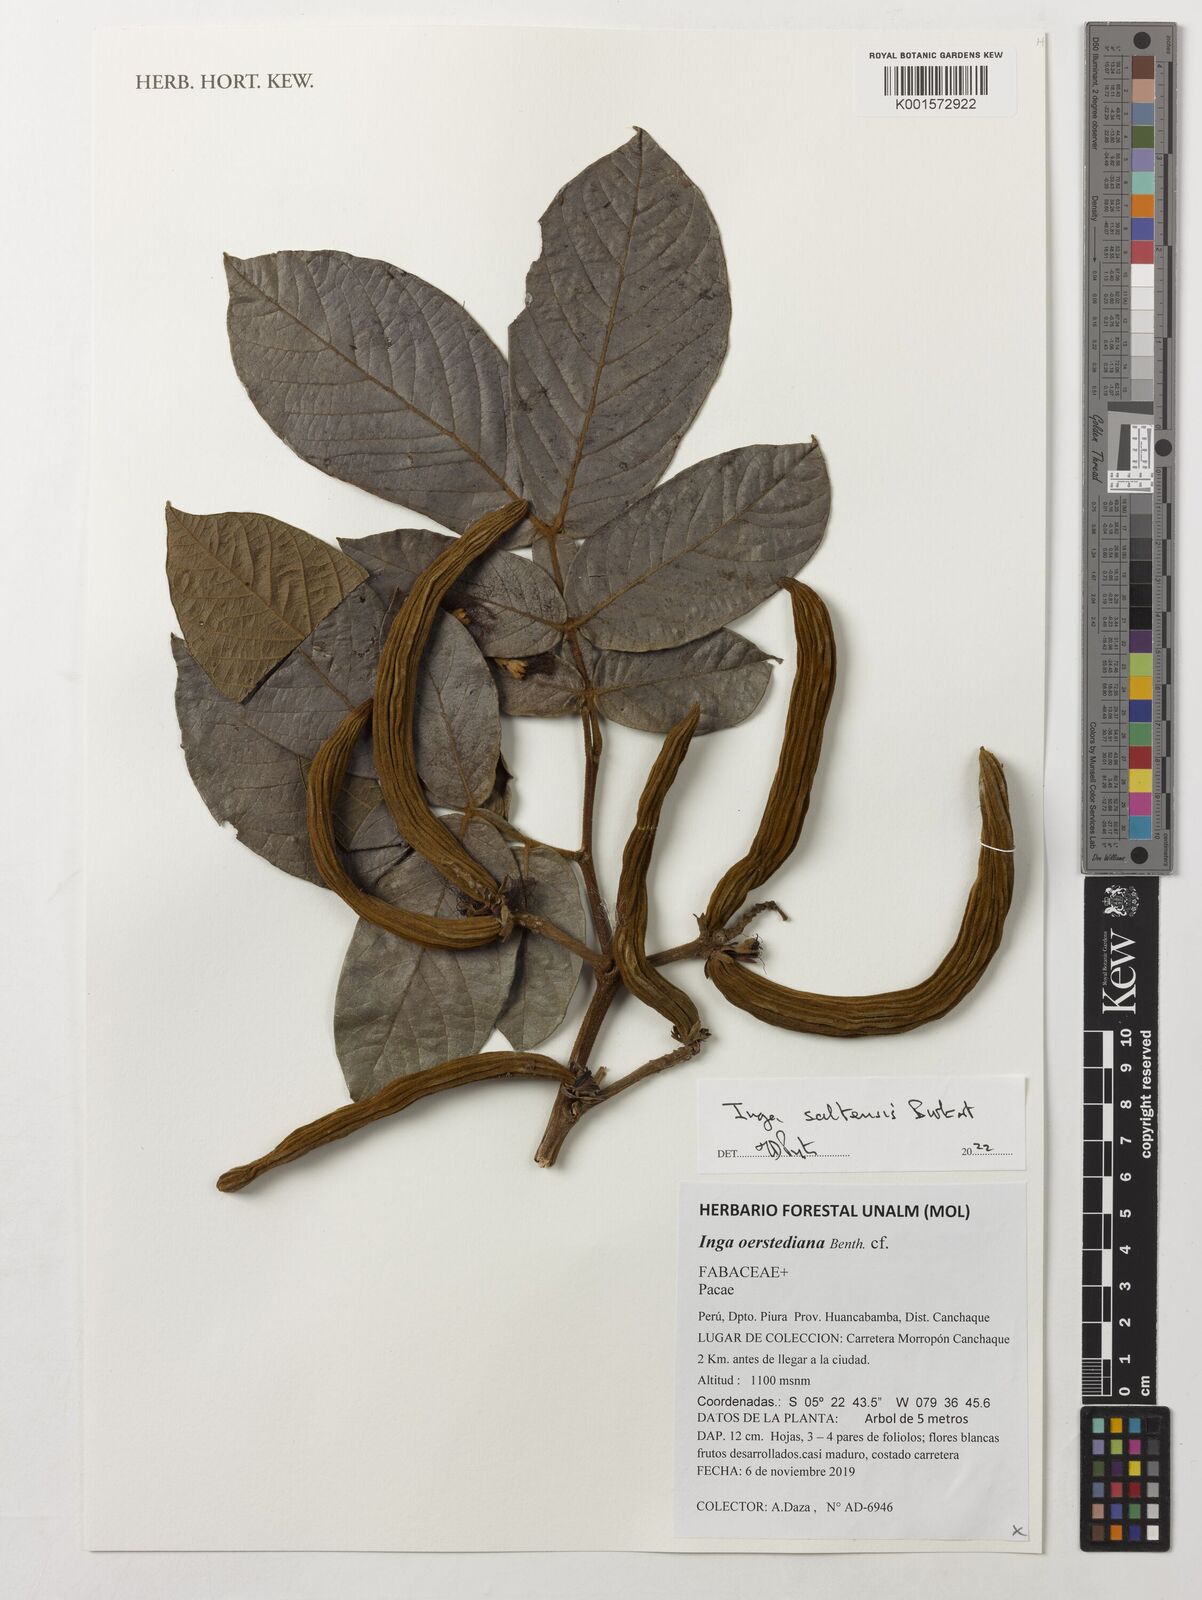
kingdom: Plantae
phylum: Tracheophyta
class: Magnoliopsida
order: Fabales
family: Fabaceae
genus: Inga
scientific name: Inga saltensis
